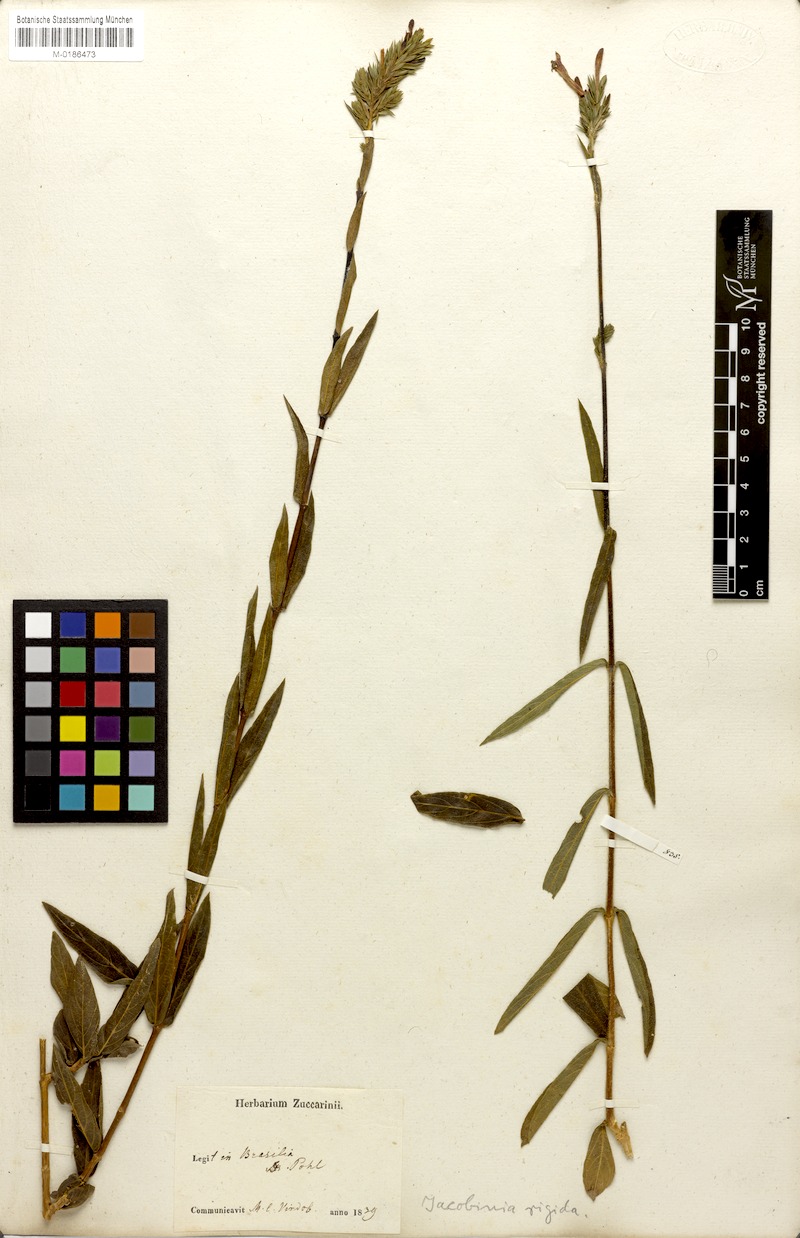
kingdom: Plantae
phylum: Tracheophyta
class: Magnoliopsida
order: Lamiales
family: Acanthaceae
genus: Dianthera
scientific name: Dianthera rigida
